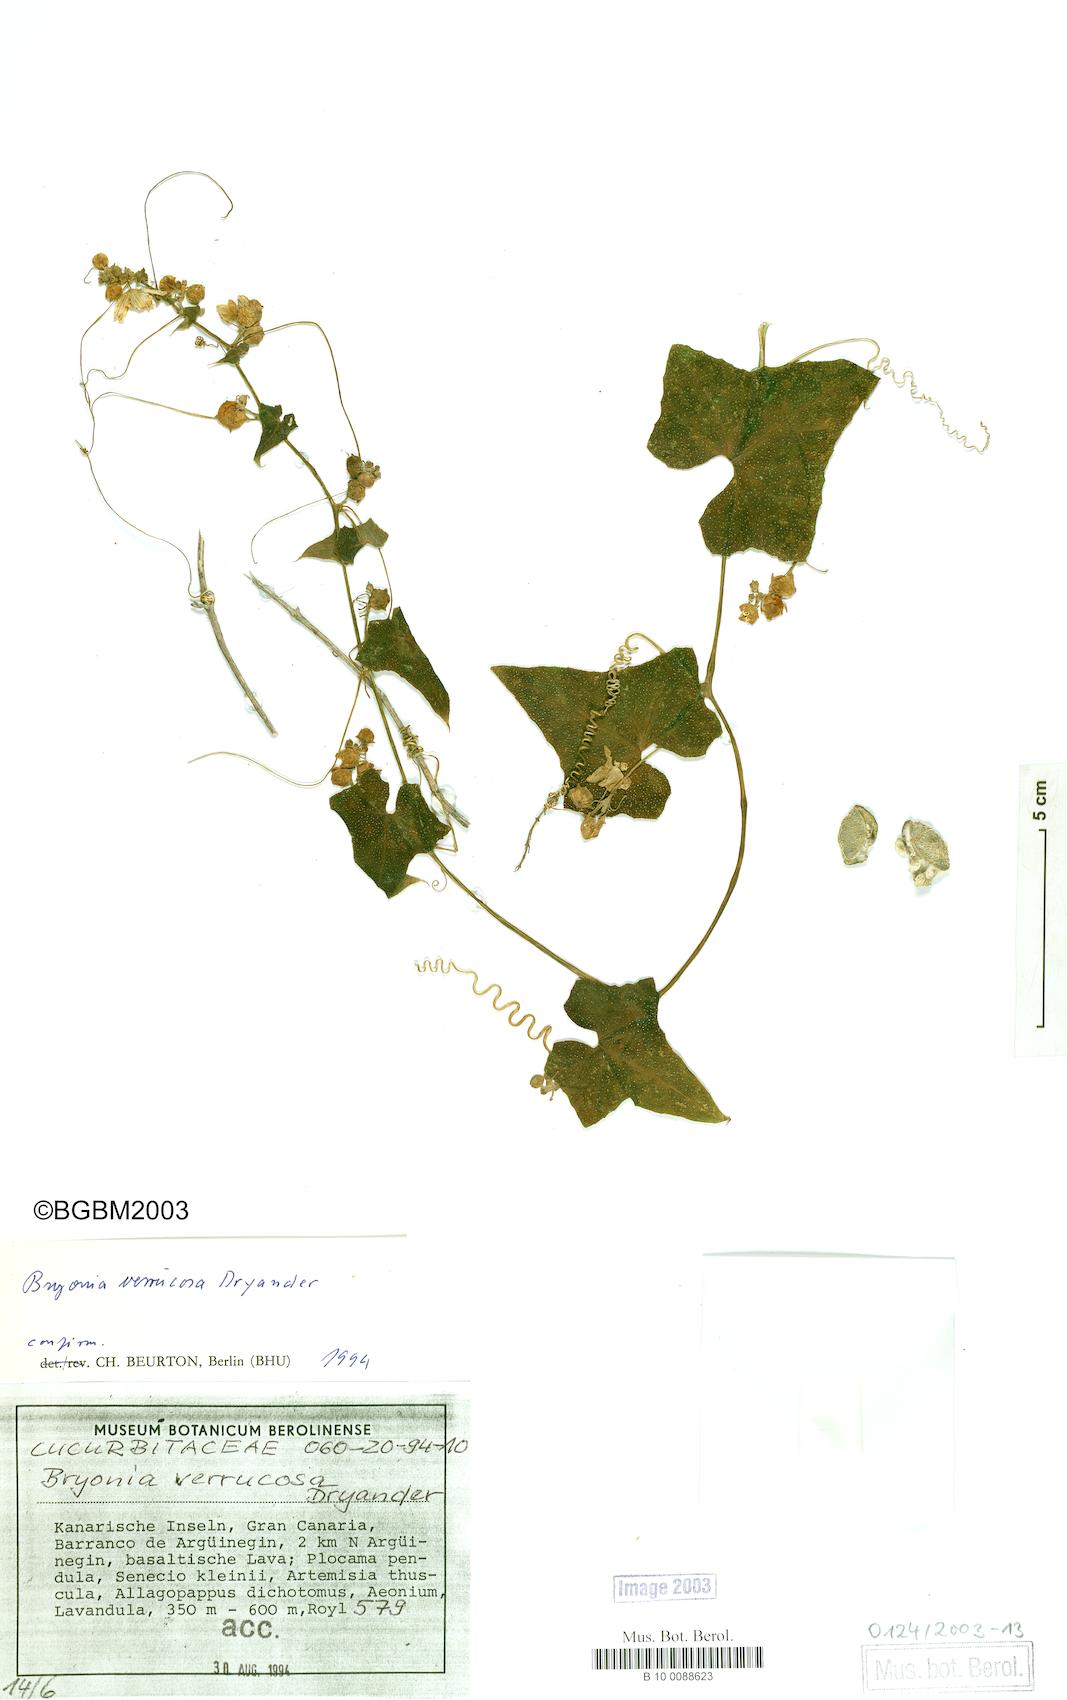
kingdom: Plantae
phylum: Tracheophyta
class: Magnoliopsida
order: Cucurbitales
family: Cucurbitaceae
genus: Bryonia
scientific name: Bryonia verrucosa
